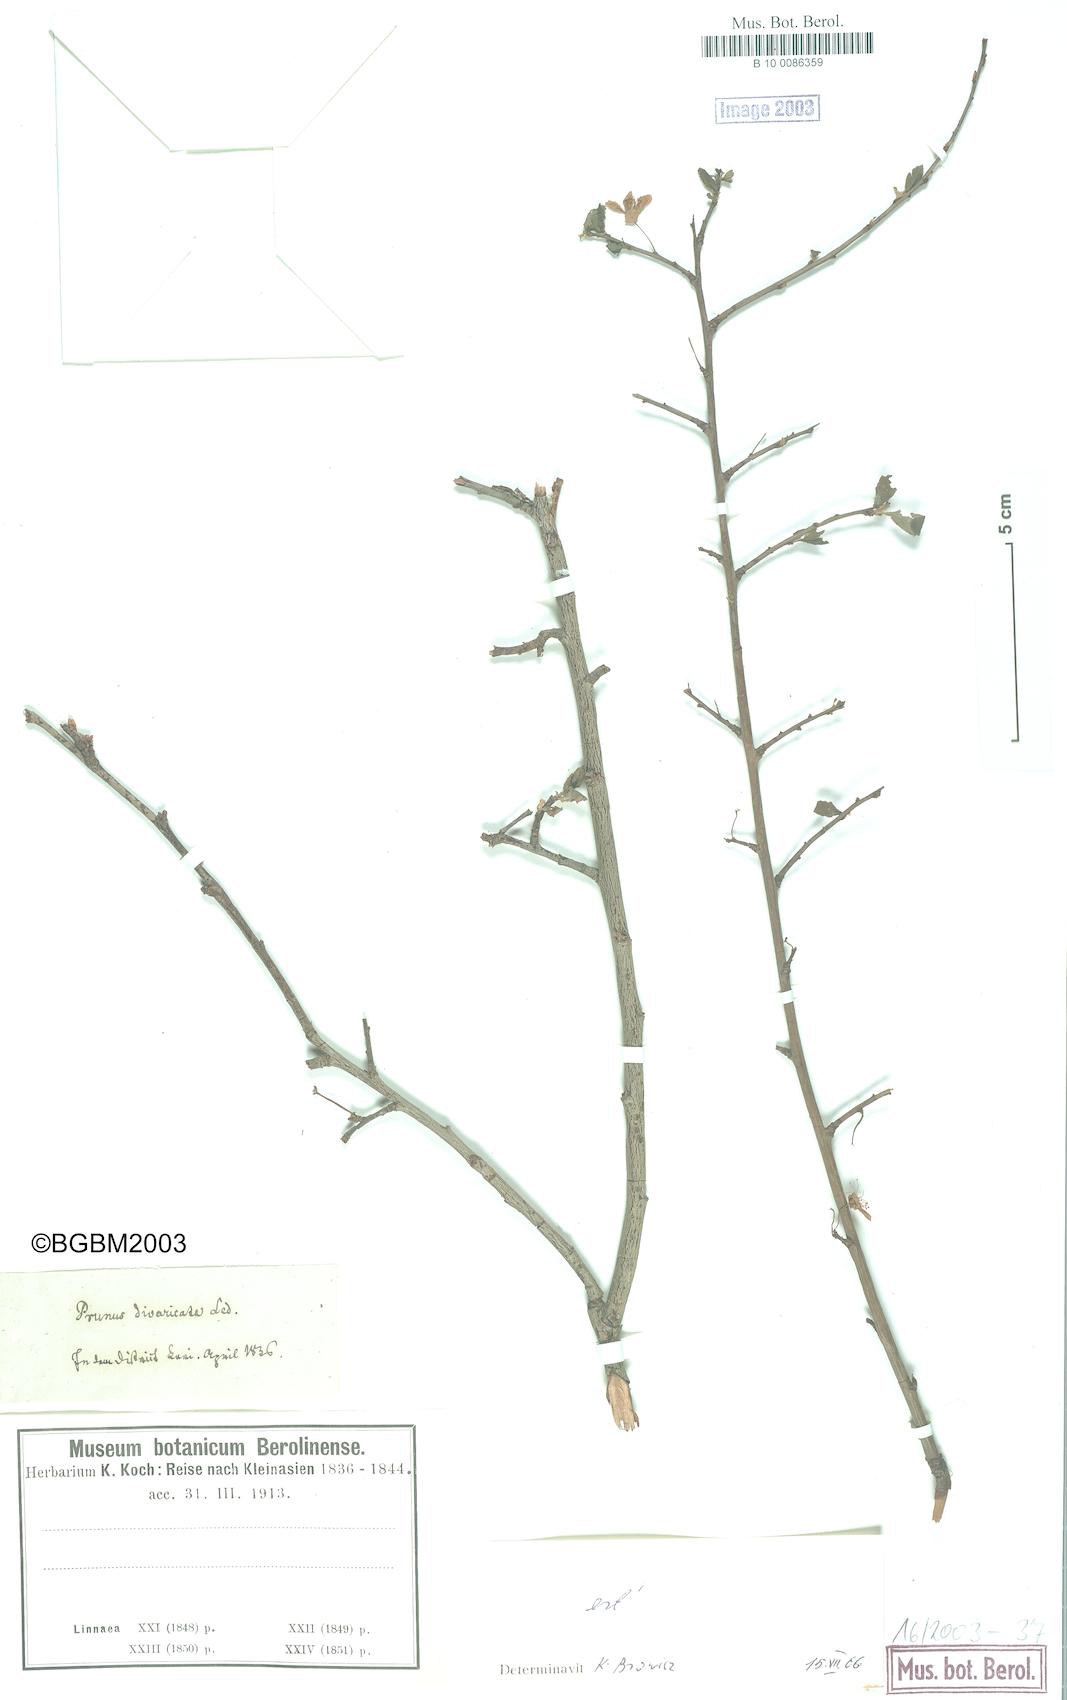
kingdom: Plantae
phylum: Tracheophyta
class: Magnoliopsida
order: Rosales
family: Rosaceae
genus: Prunus
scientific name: Prunus cerasifera
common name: Cherry plum
